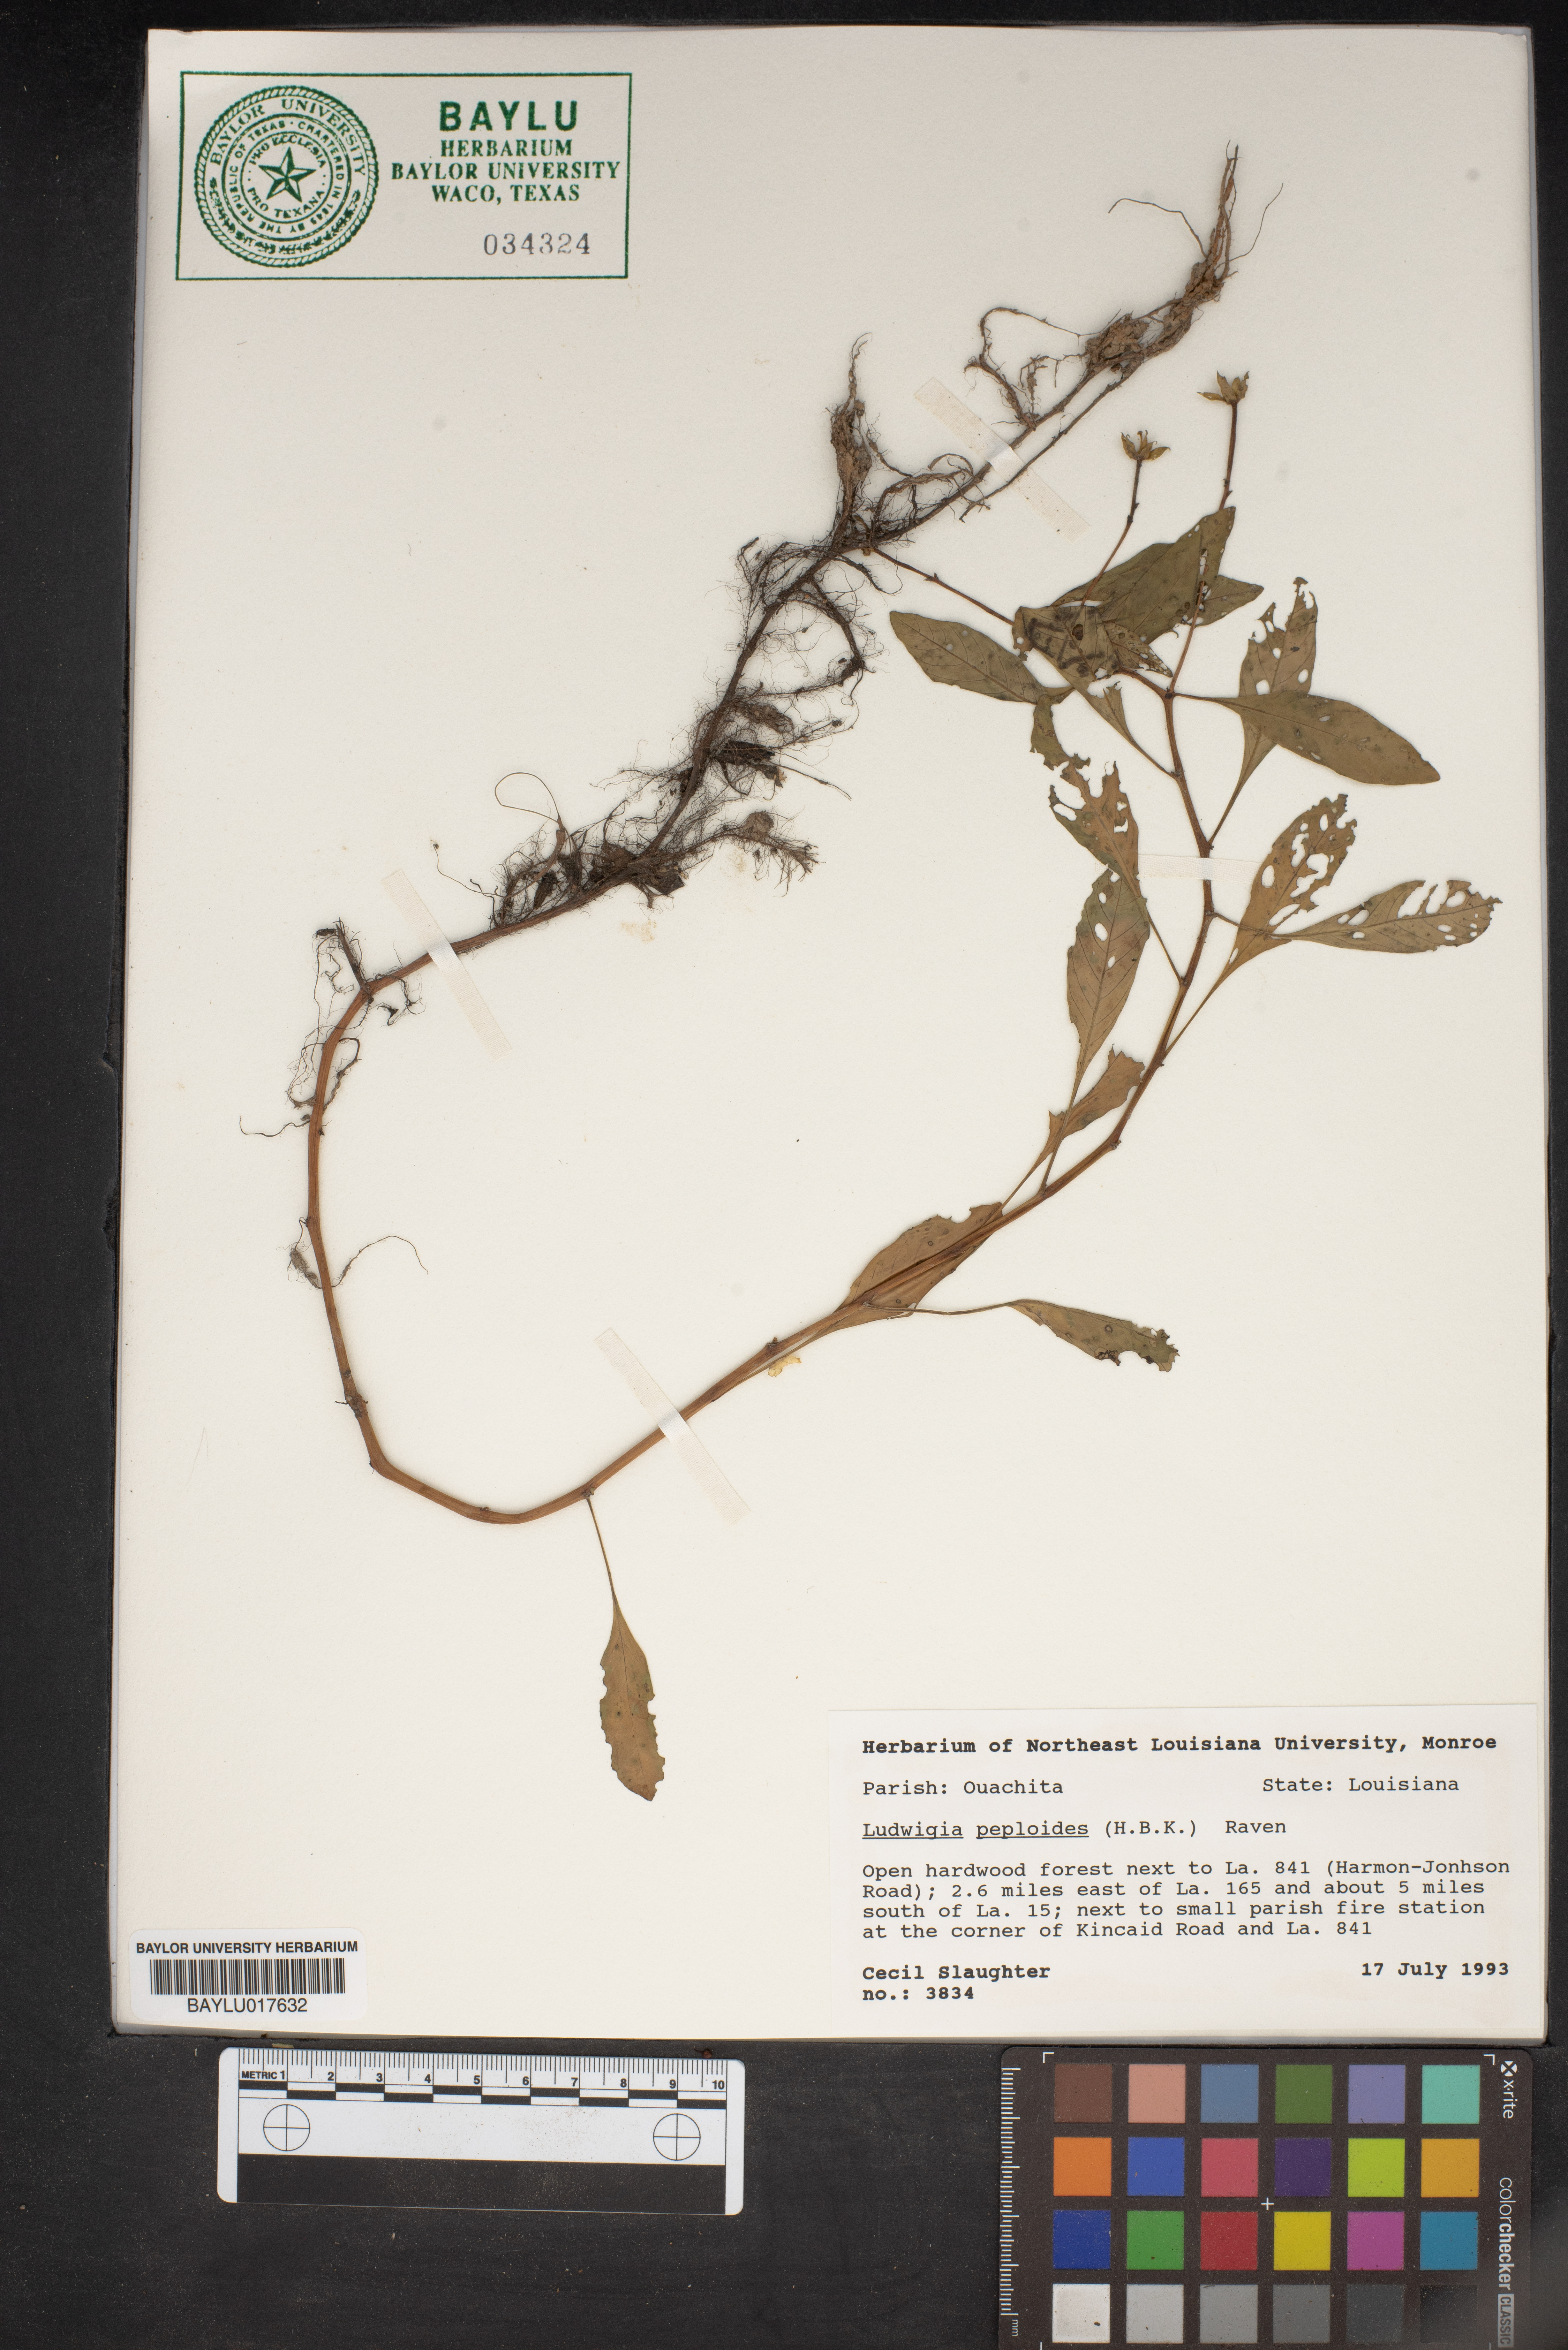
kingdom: Plantae
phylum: Tracheophyta
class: Magnoliopsida
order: Myrtales
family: Onagraceae
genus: Ludwigia
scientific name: Ludwigia peploides
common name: Floating primrose-willow
